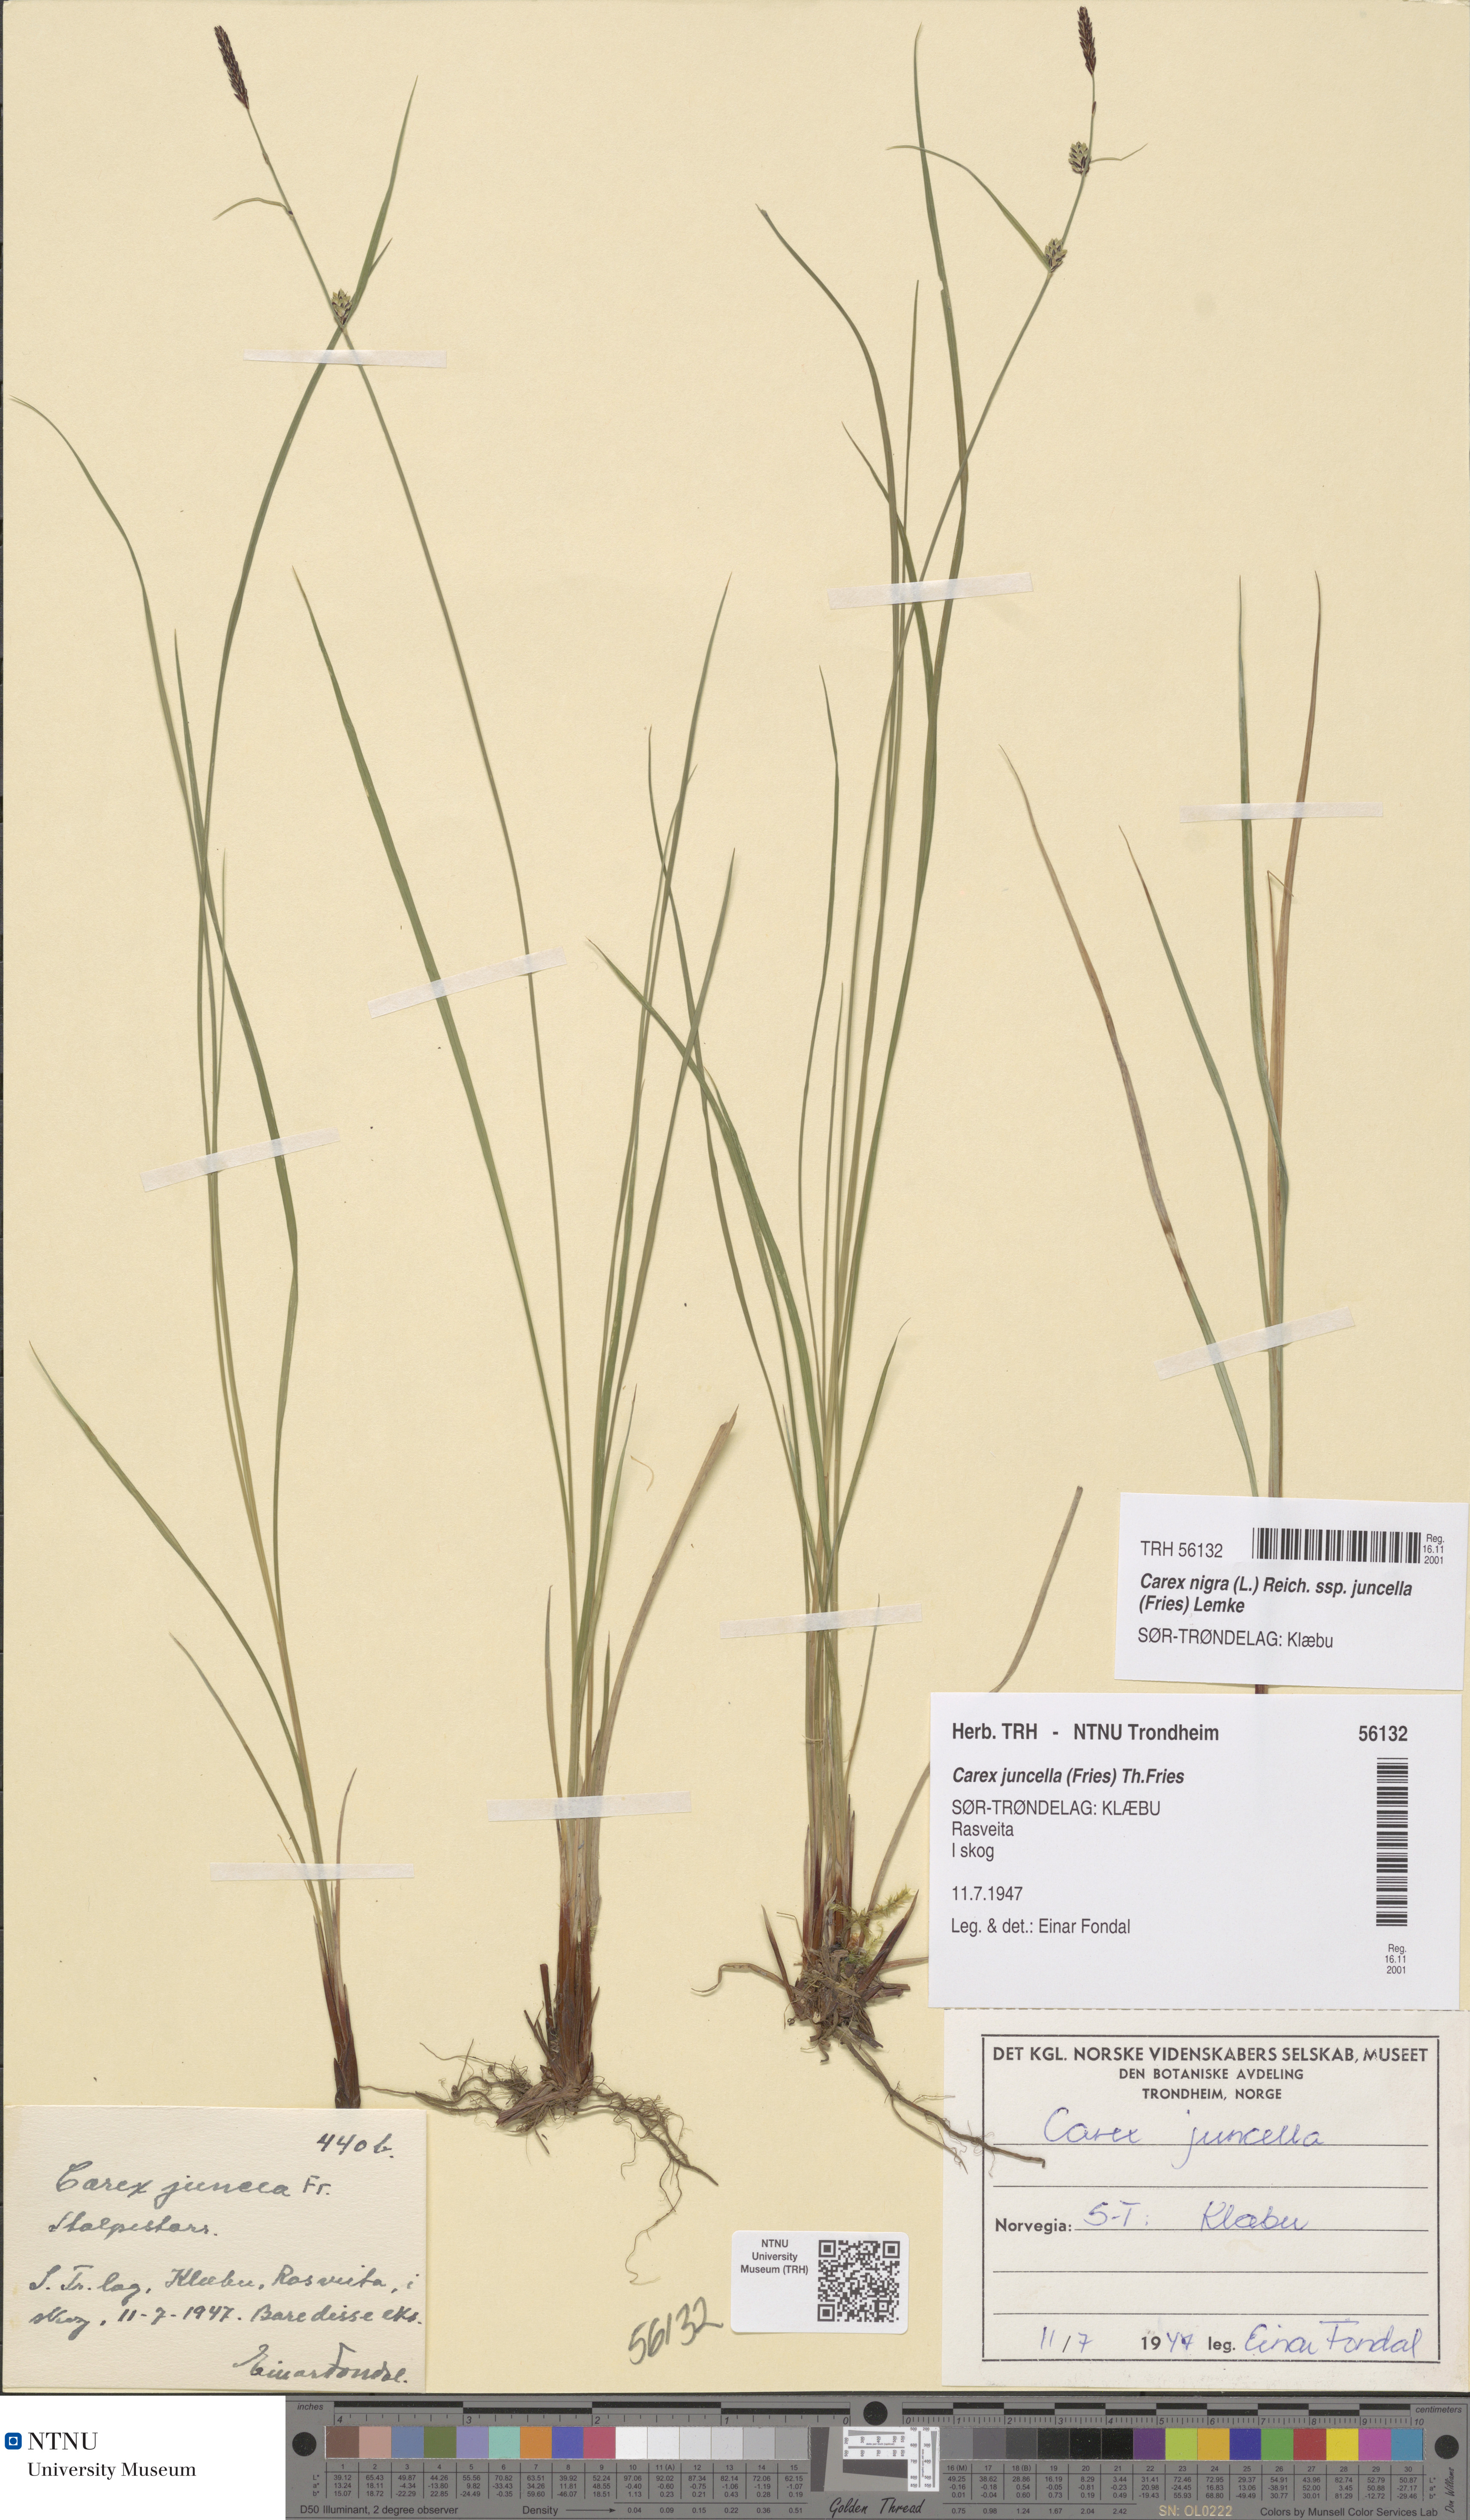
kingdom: Plantae
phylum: Tracheophyta
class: Liliopsida
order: Poales
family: Cyperaceae
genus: Carex
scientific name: Carex nigra
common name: Common sedge
